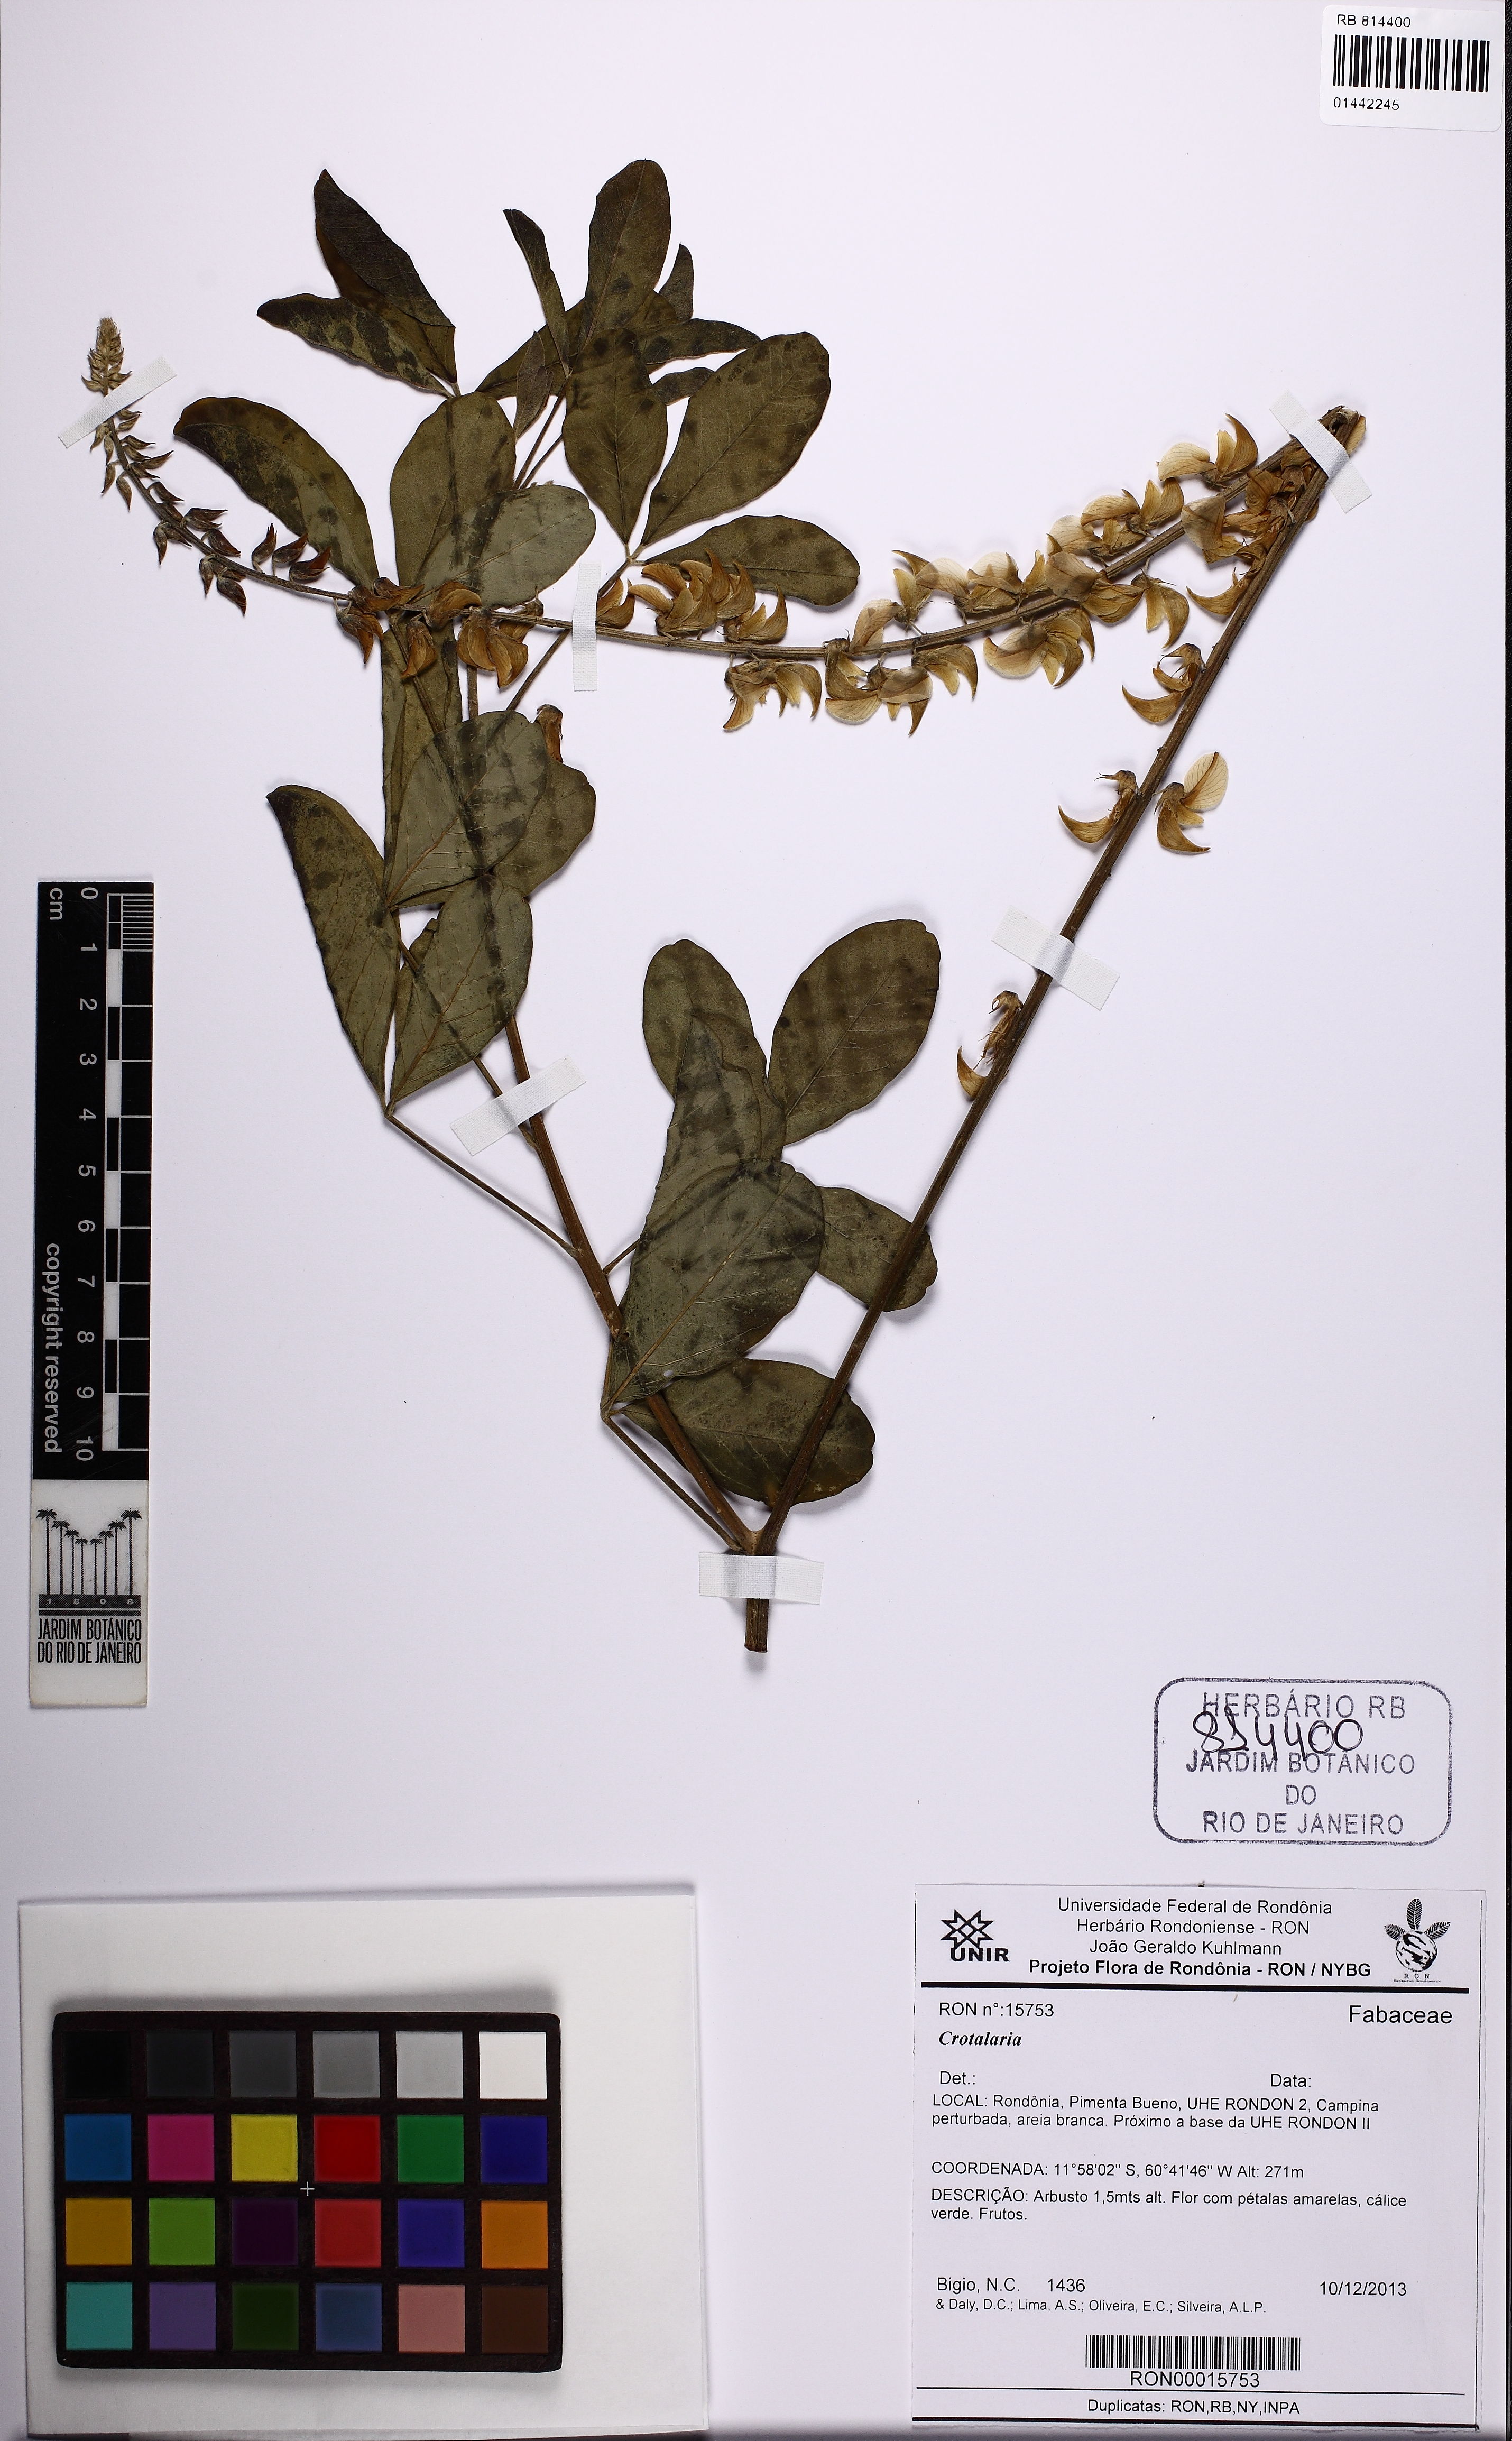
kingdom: Plantae
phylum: Tracheophyta
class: Magnoliopsida
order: Fabales
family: Fabaceae
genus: Crotalaria
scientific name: Crotalaria
